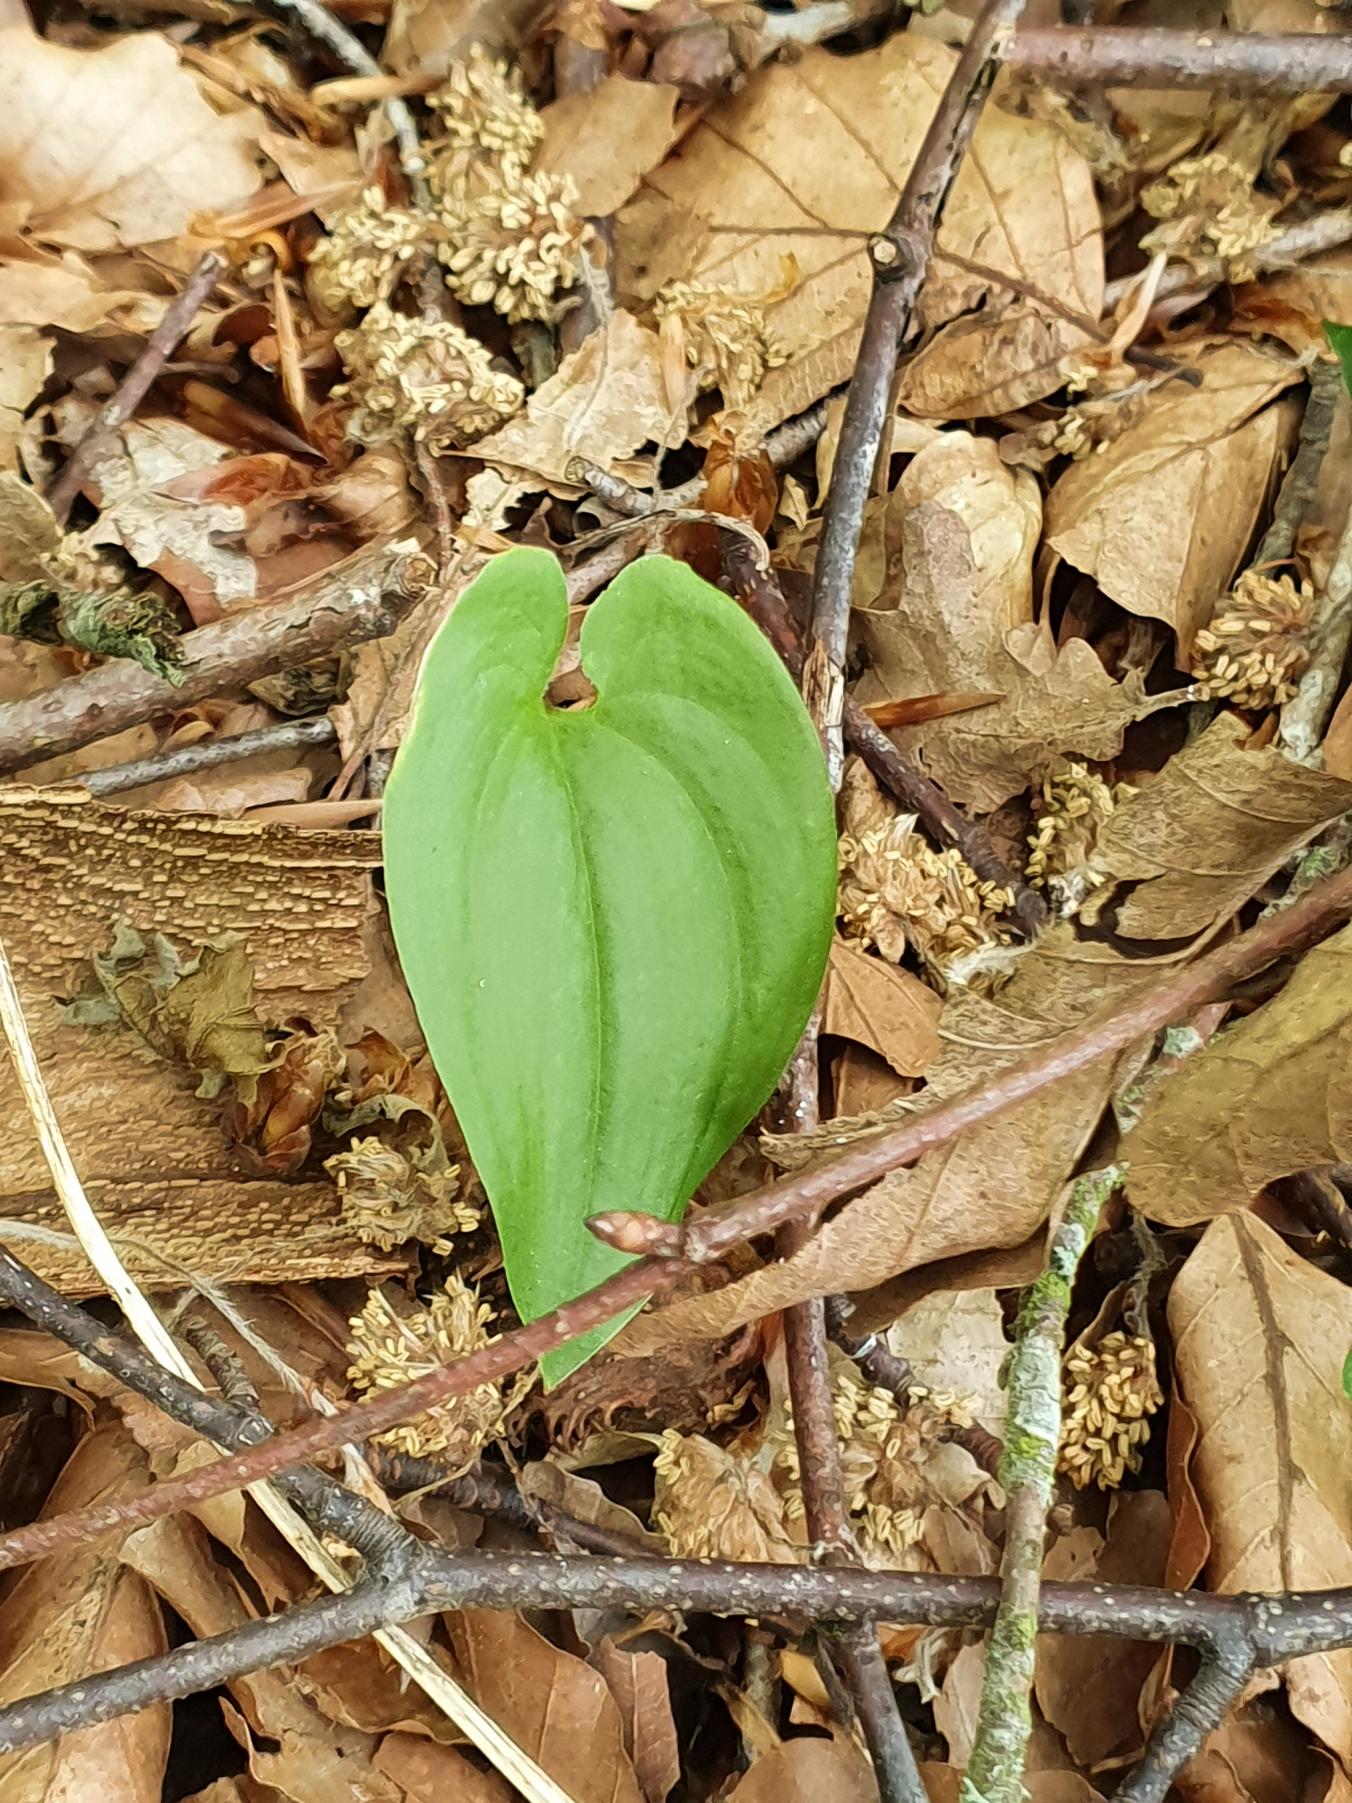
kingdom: Plantae
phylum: Tracheophyta
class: Liliopsida
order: Asparagales
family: Asparagaceae
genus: Maianthemum
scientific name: Maianthemum bifolium
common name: Majblomst
